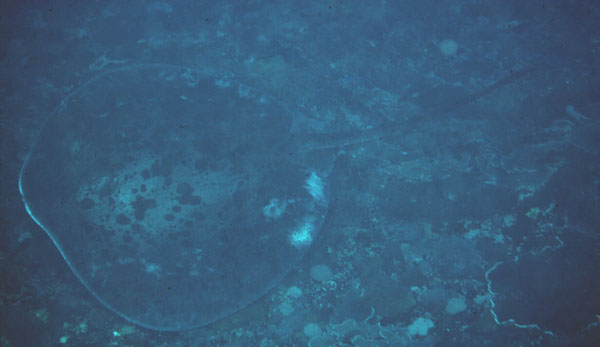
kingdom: Animalia
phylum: Chordata
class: Elasmobranchii
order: Myliobatiformes
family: Dasyatidae
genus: Taeniurops
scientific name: Taeniurops meyeni
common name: Black-blotched stingray
